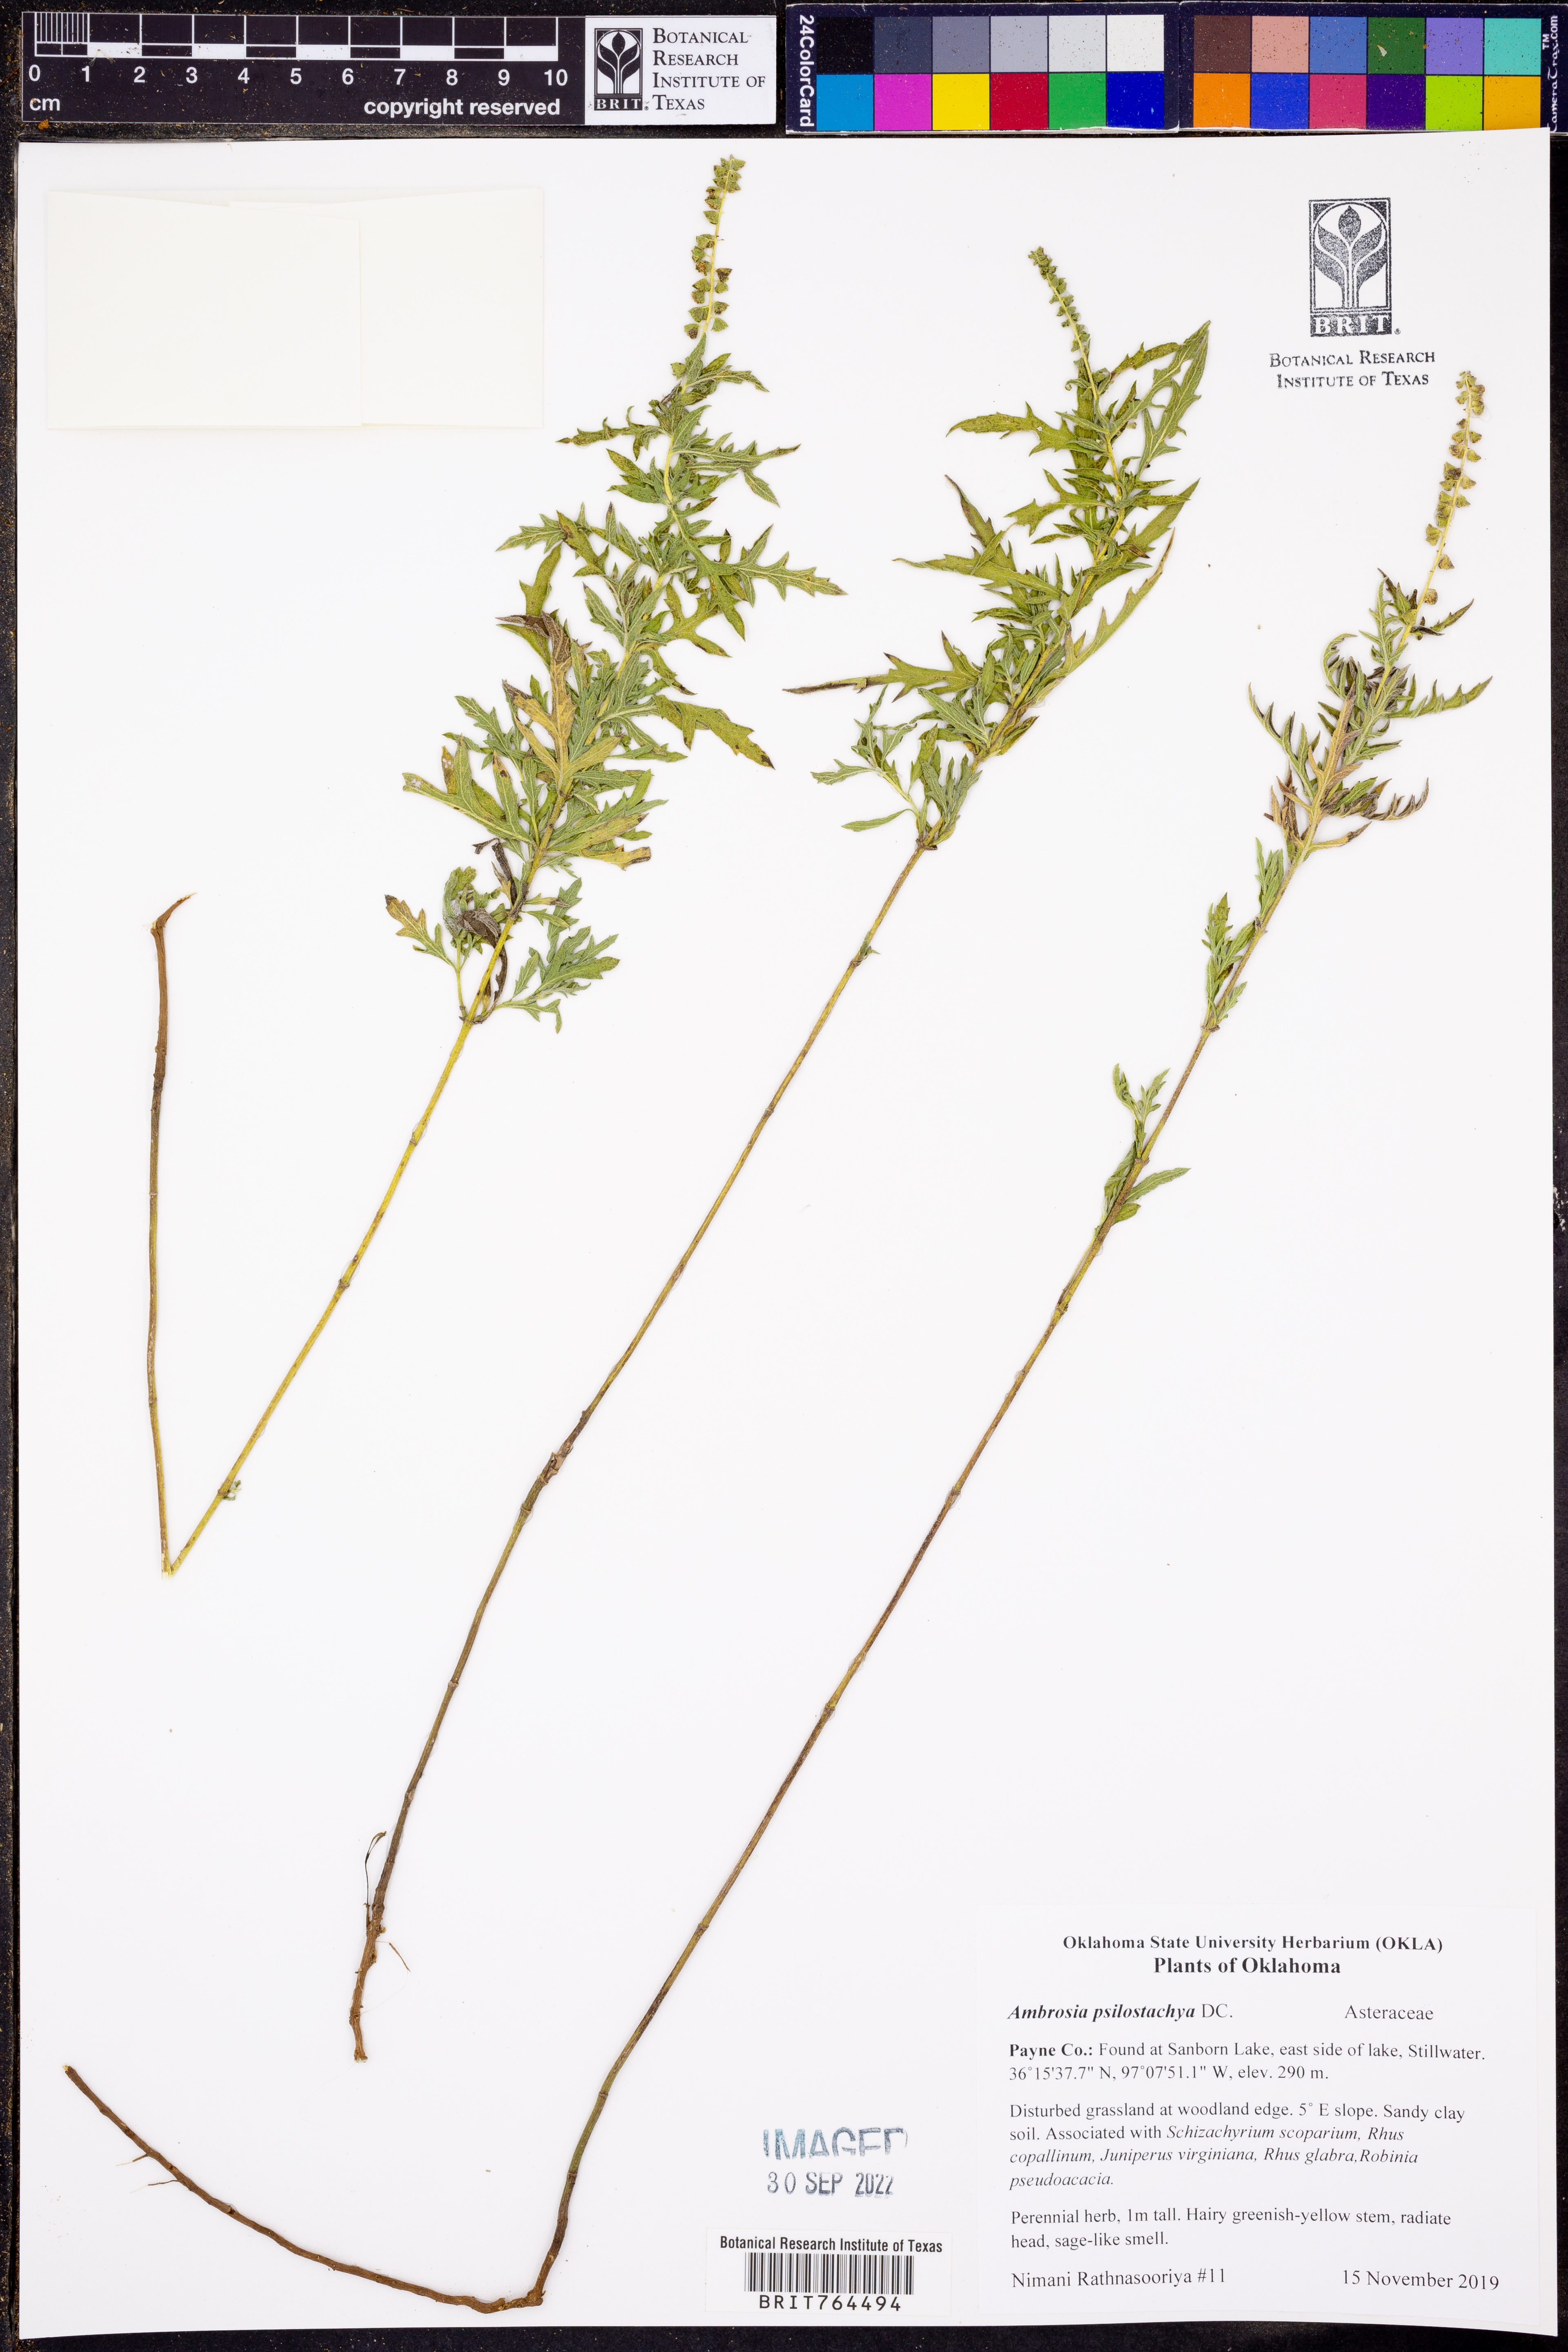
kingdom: Plantae
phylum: Tracheophyta
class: Magnoliopsida
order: Asterales
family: Asteraceae
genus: Ambrosia
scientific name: Ambrosia psilostachya
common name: Perennial ragweed
